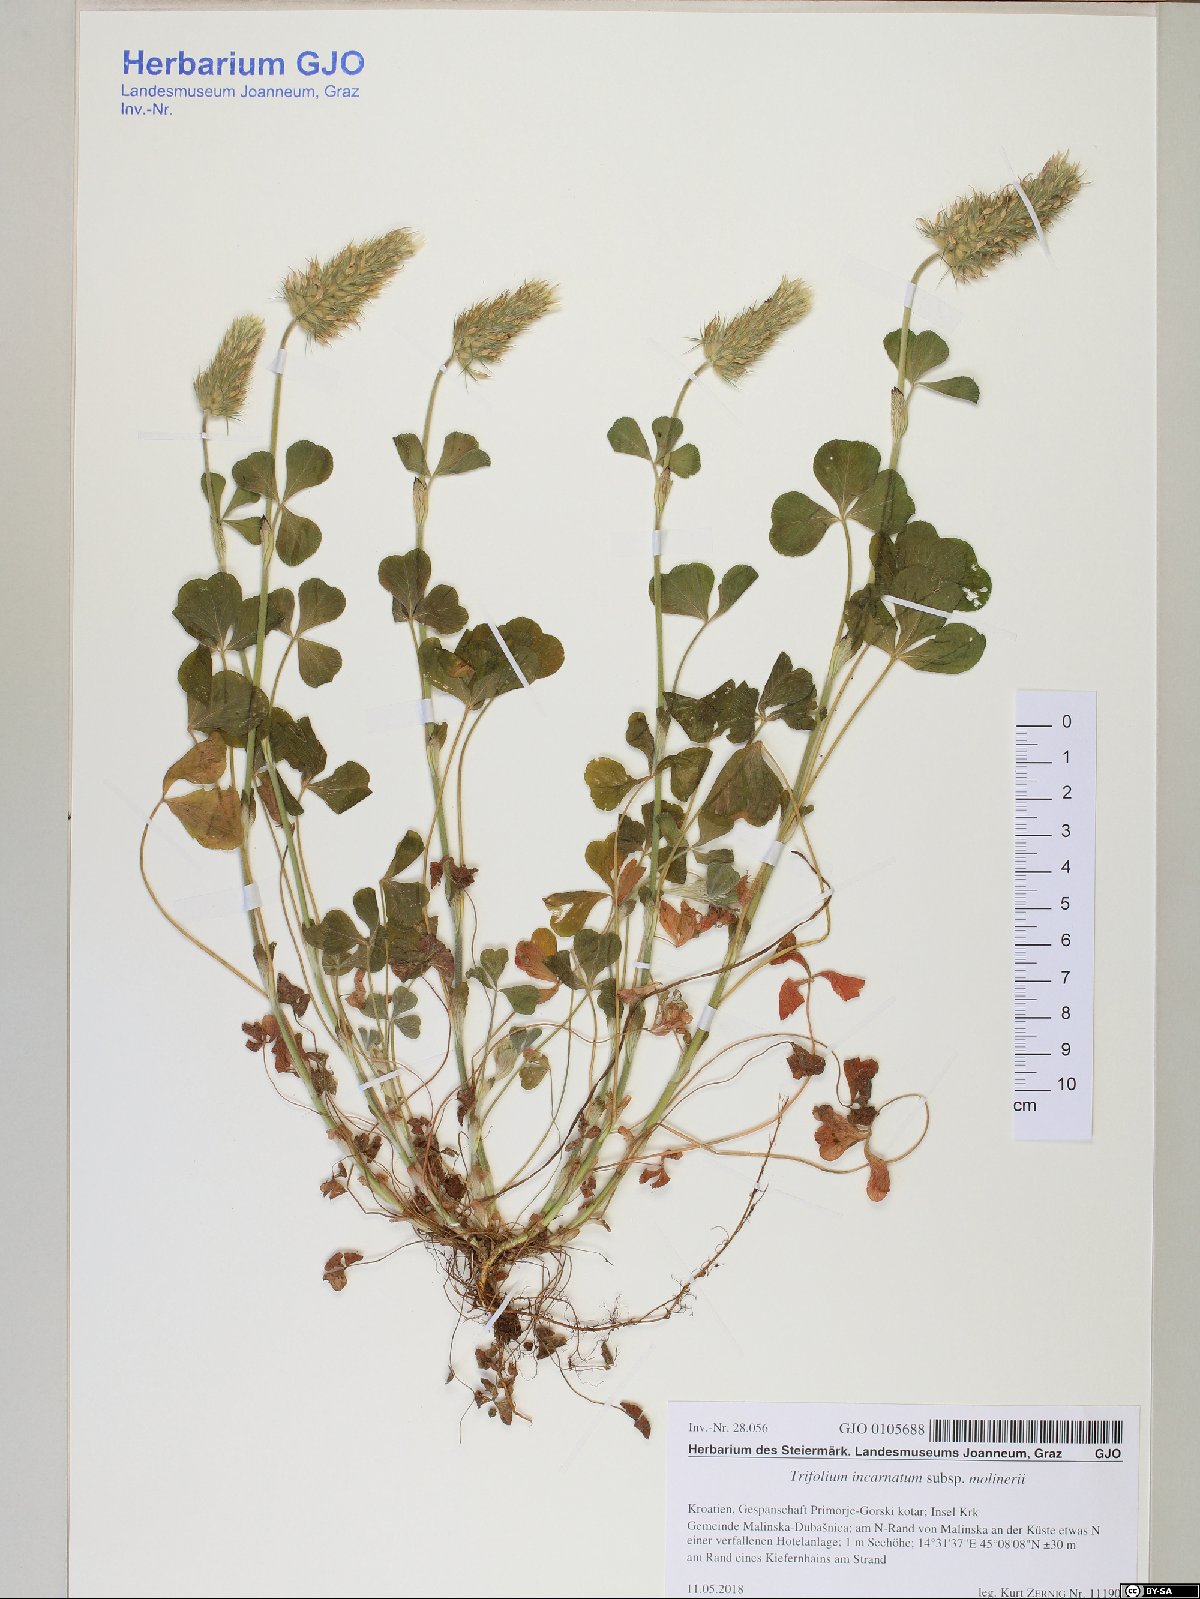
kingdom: Plantae
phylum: Tracheophyta
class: Magnoliopsida
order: Fabales
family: Fabaceae
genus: Trifolium
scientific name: Trifolium incarnatum
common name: Crimson clover
